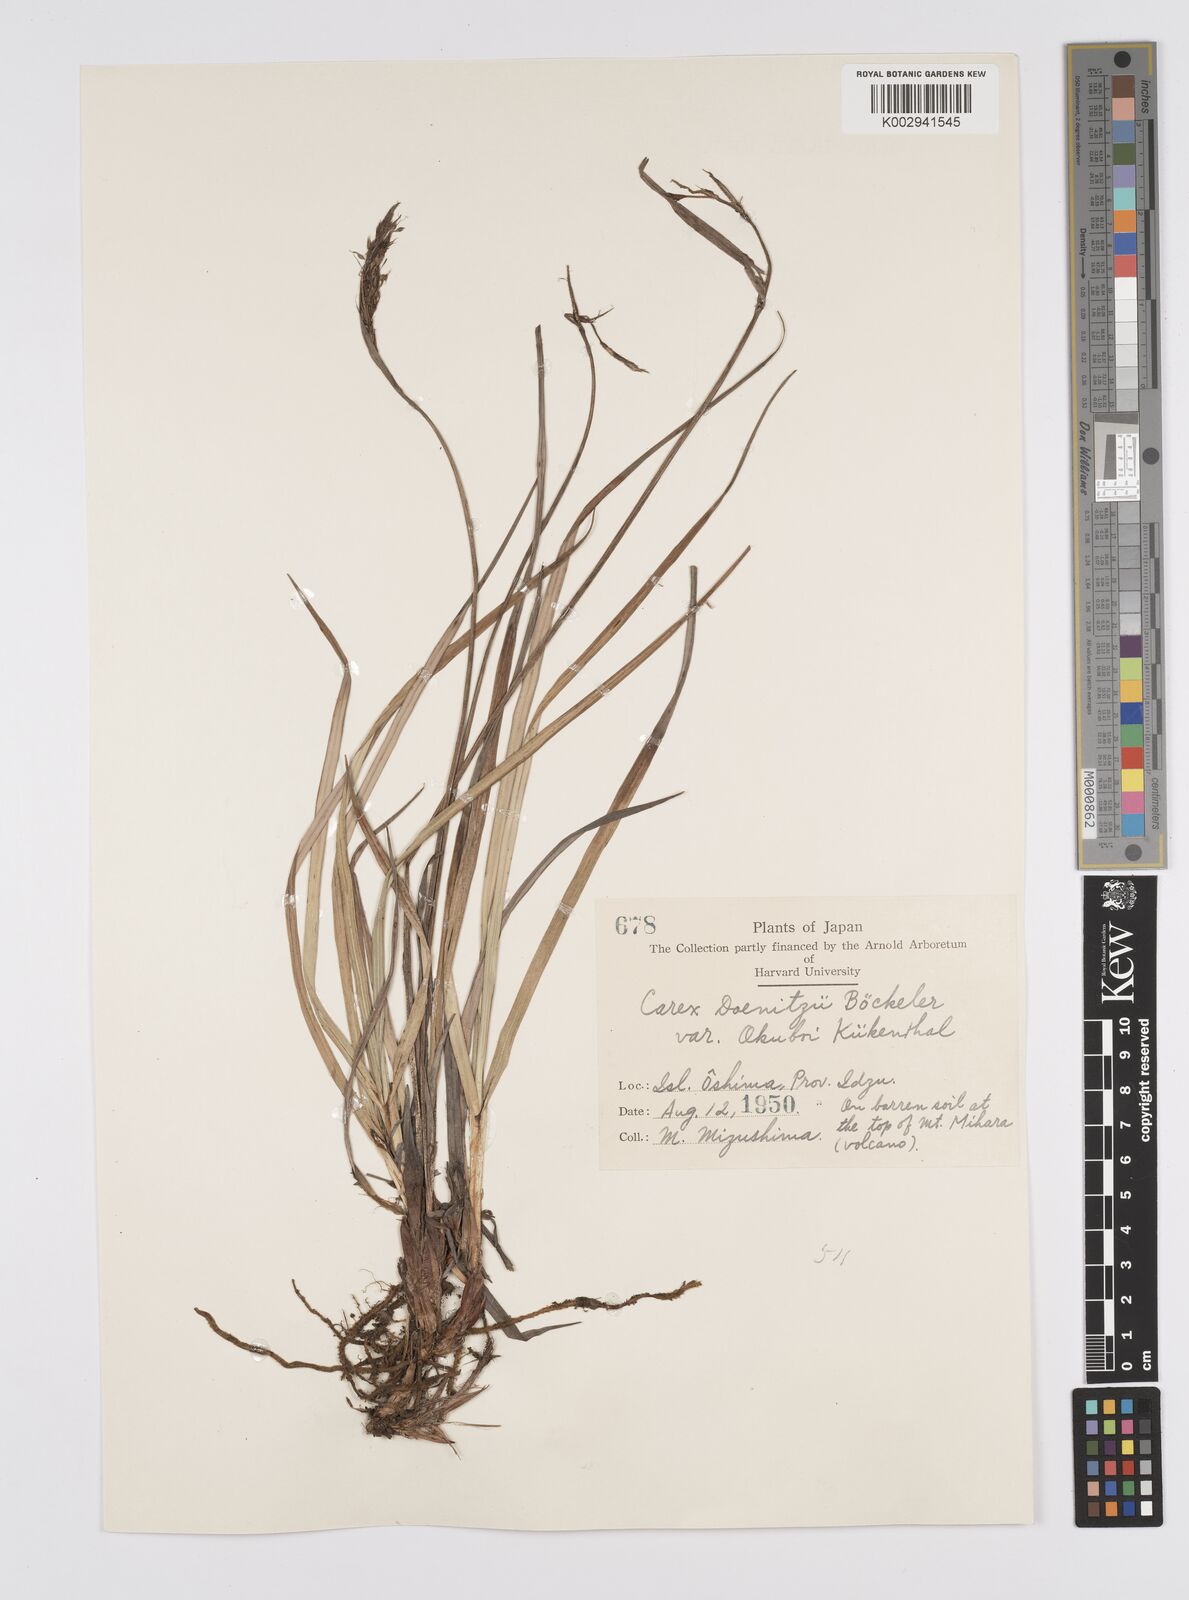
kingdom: Plantae
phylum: Tracheophyta
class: Liliopsida
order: Poales
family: Cyperaceae
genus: Carex
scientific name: Carex doenitzii
